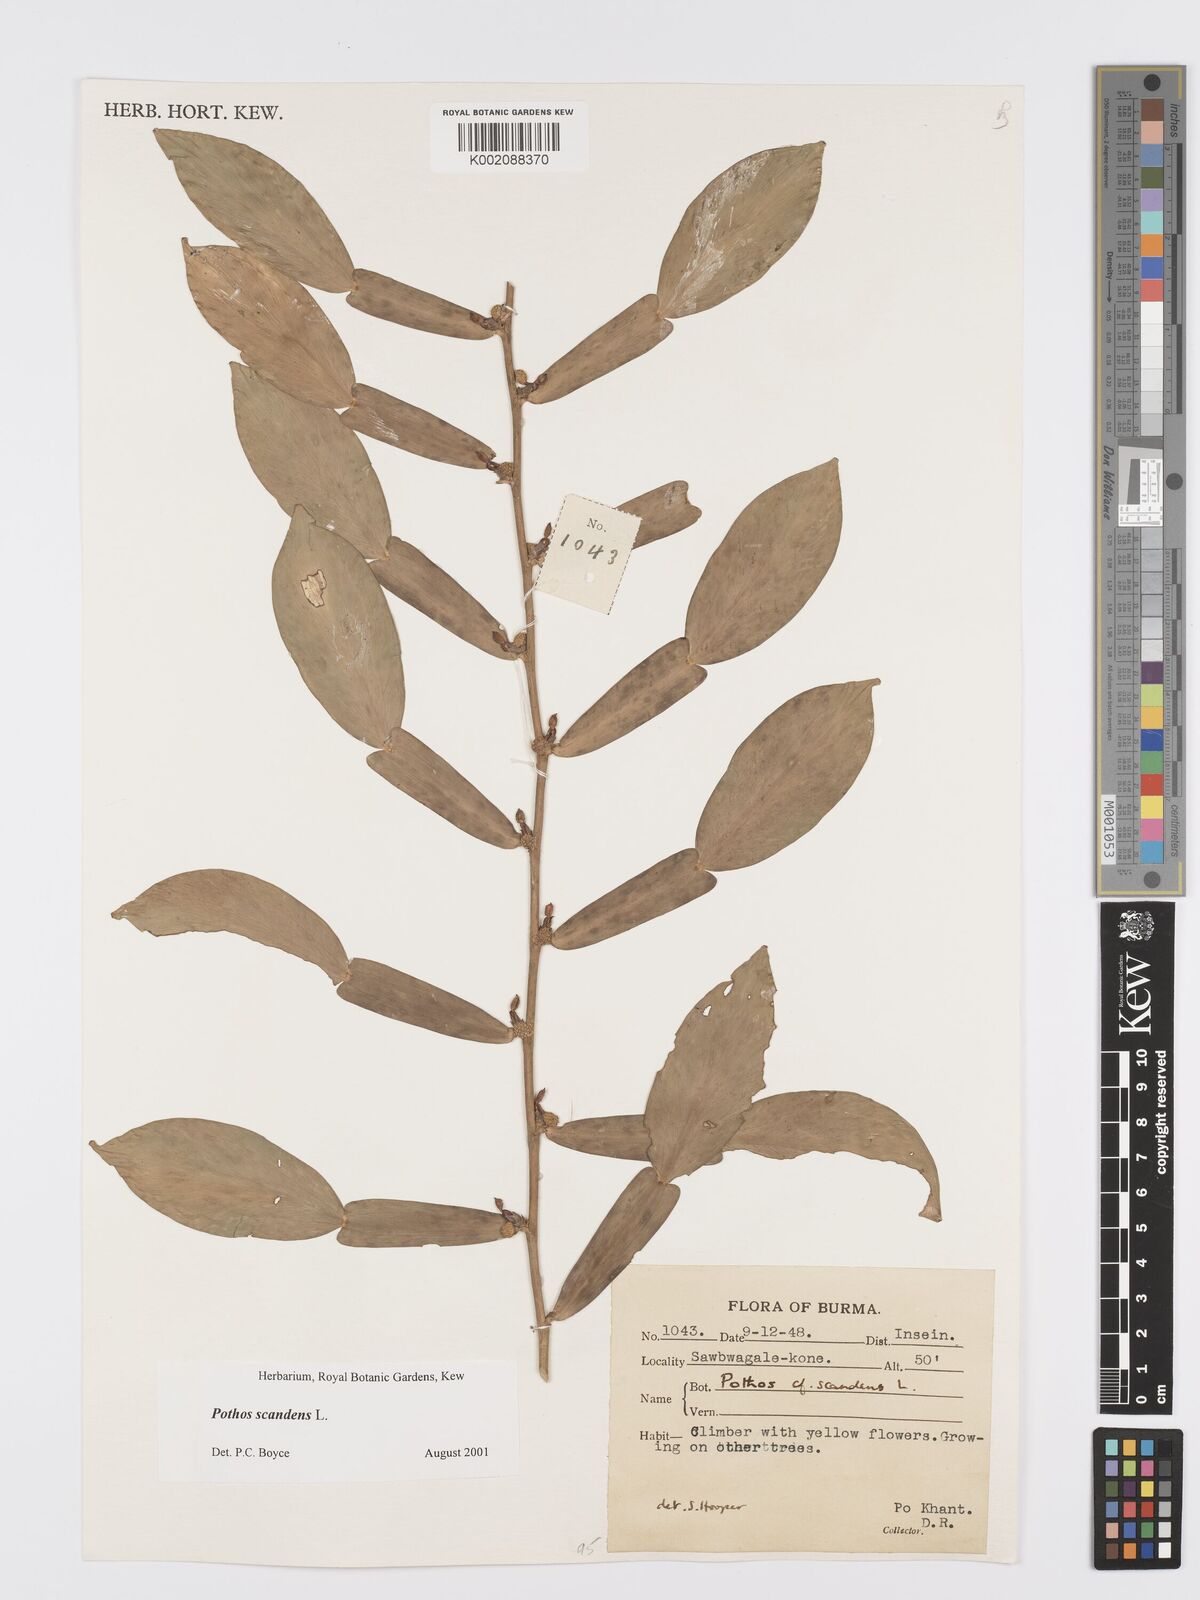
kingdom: Plantae
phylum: Tracheophyta
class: Liliopsida
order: Alismatales
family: Araceae
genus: Pothos
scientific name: Pothos scandens
